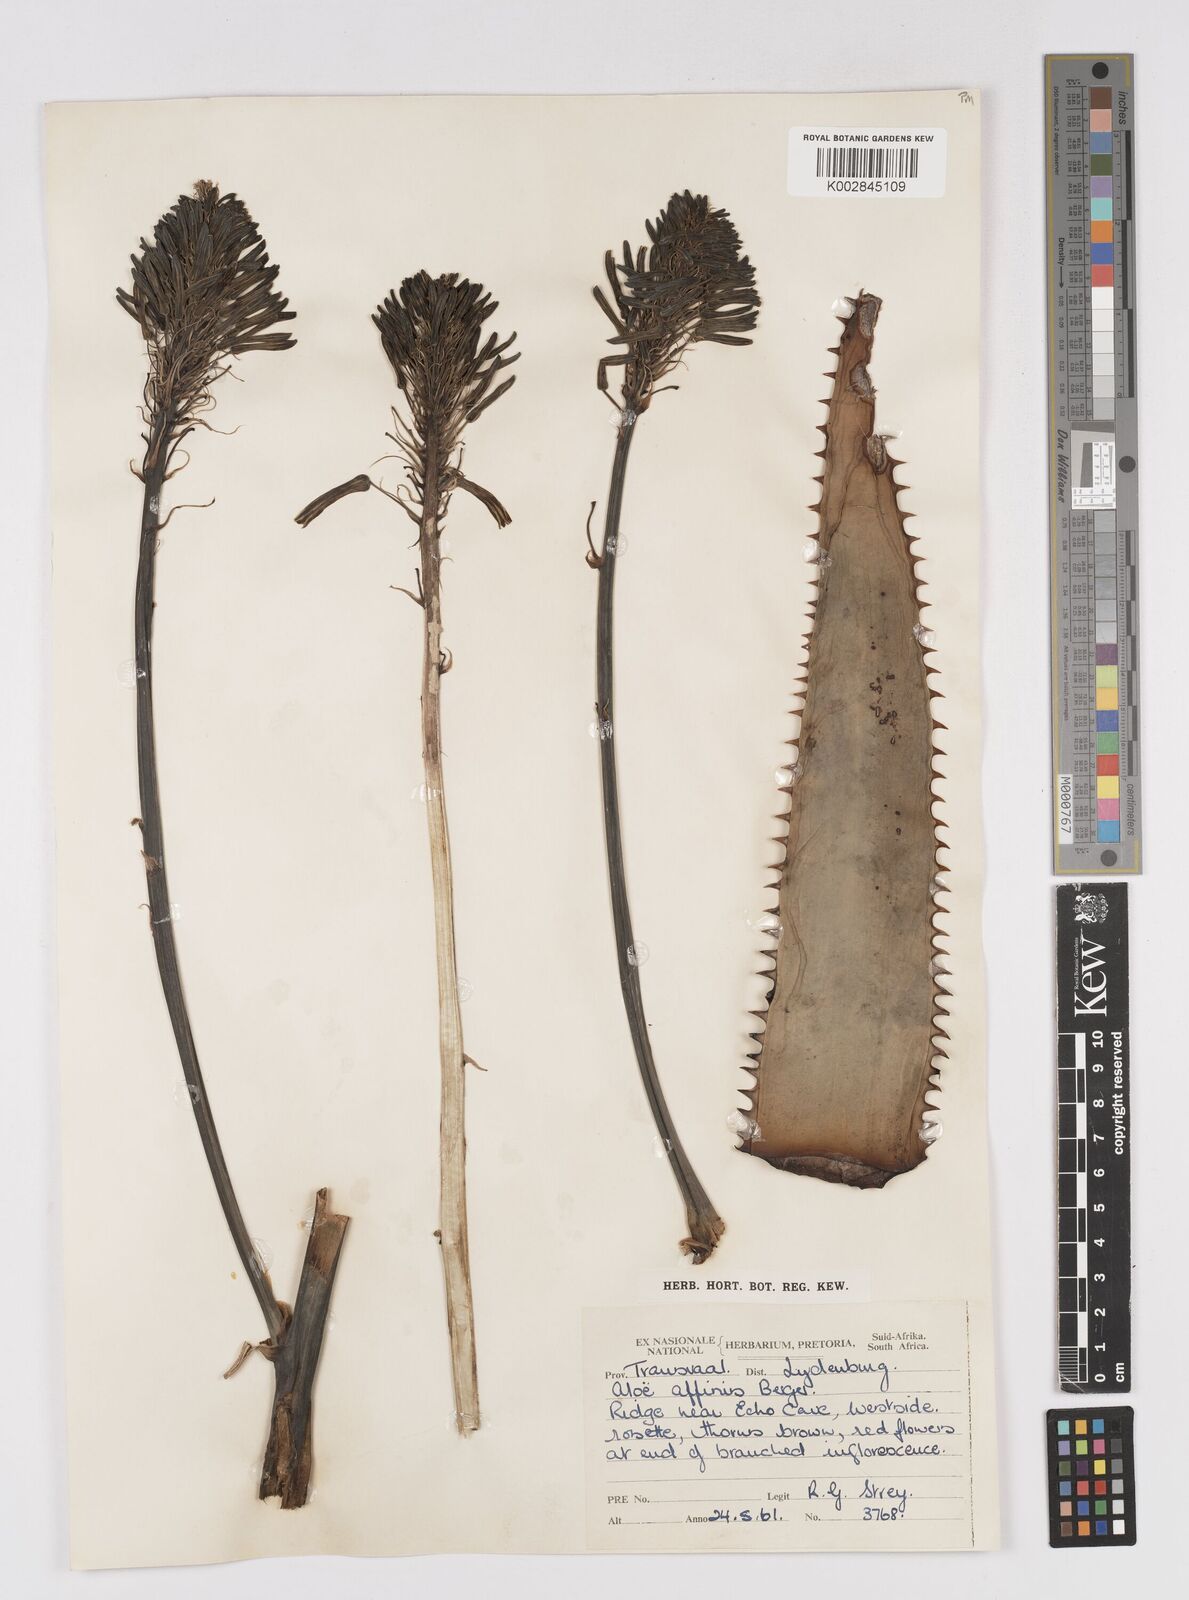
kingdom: Plantae
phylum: Tracheophyta
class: Liliopsida
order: Asparagales
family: Asphodelaceae
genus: Aloe
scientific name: Aloe affinis
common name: Spotted aloe
